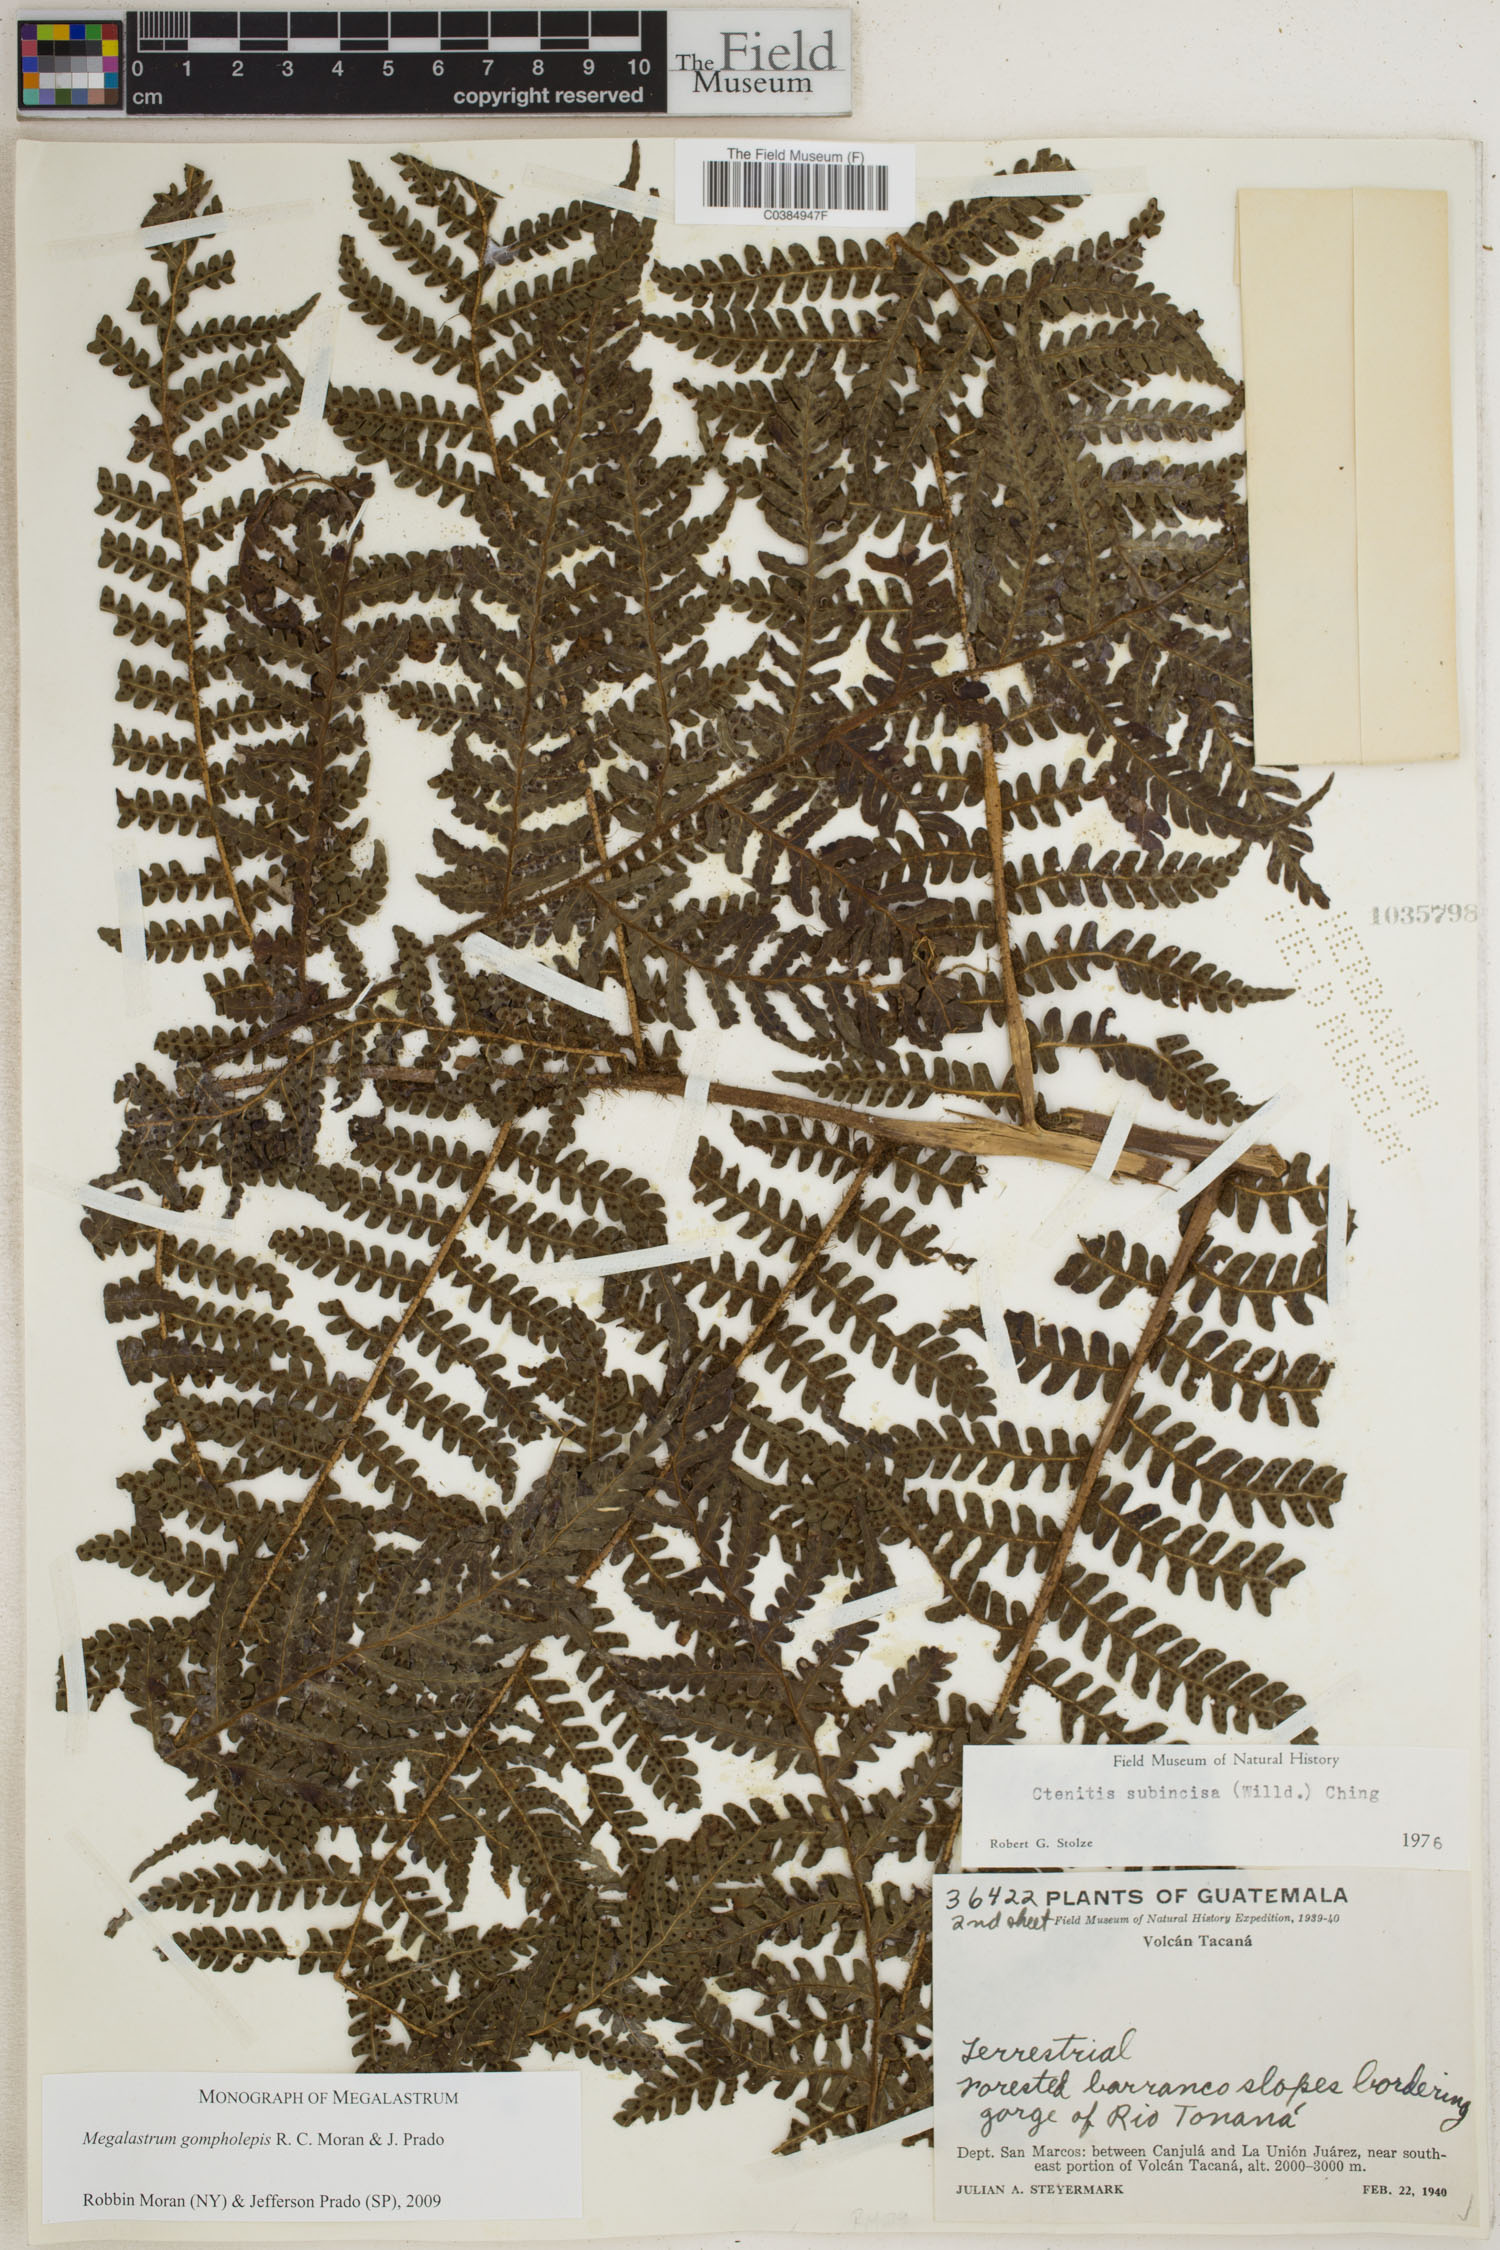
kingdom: Plantae
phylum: Tracheophyta
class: Polypodiopsida
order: Polypodiales
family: Dryopteridaceae
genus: Megalastrum
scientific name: Megalastrum gompholepis
